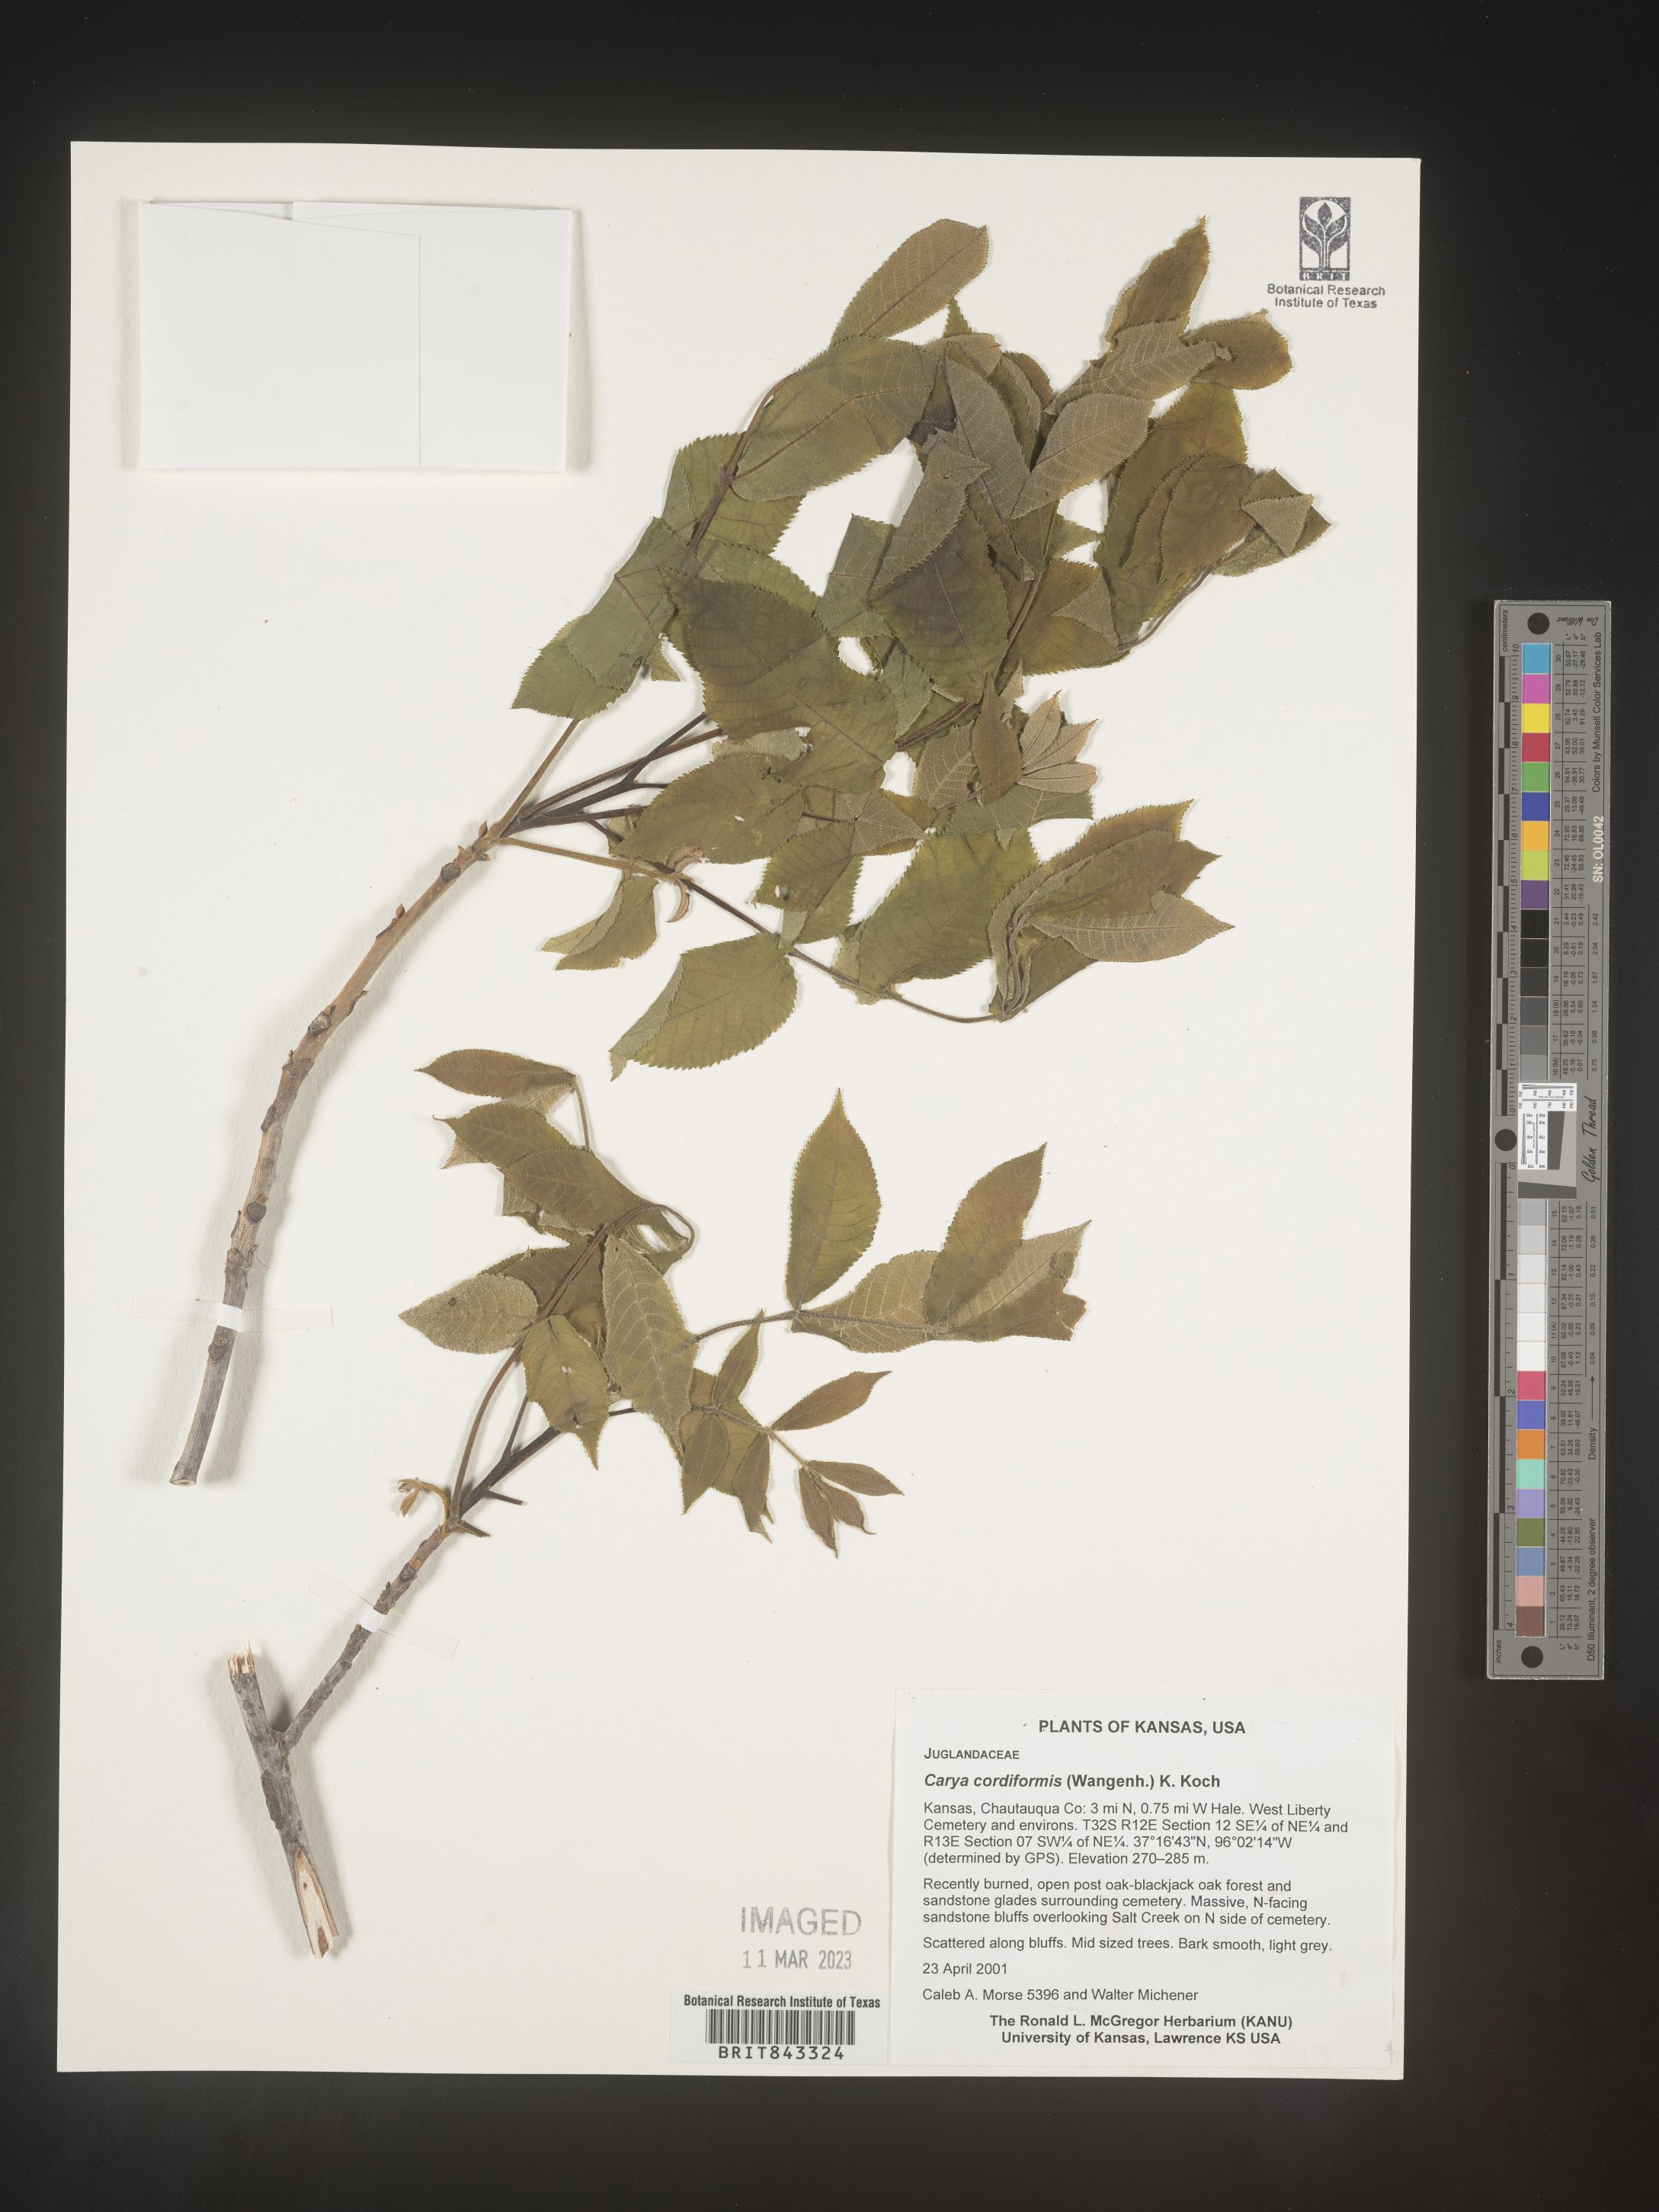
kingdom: Plantae
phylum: Tracheophyta
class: Magnoliopsida
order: Fagales
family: Juglandaceae
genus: Carya
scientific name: Carya cordiformis
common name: Bitternut hickory
